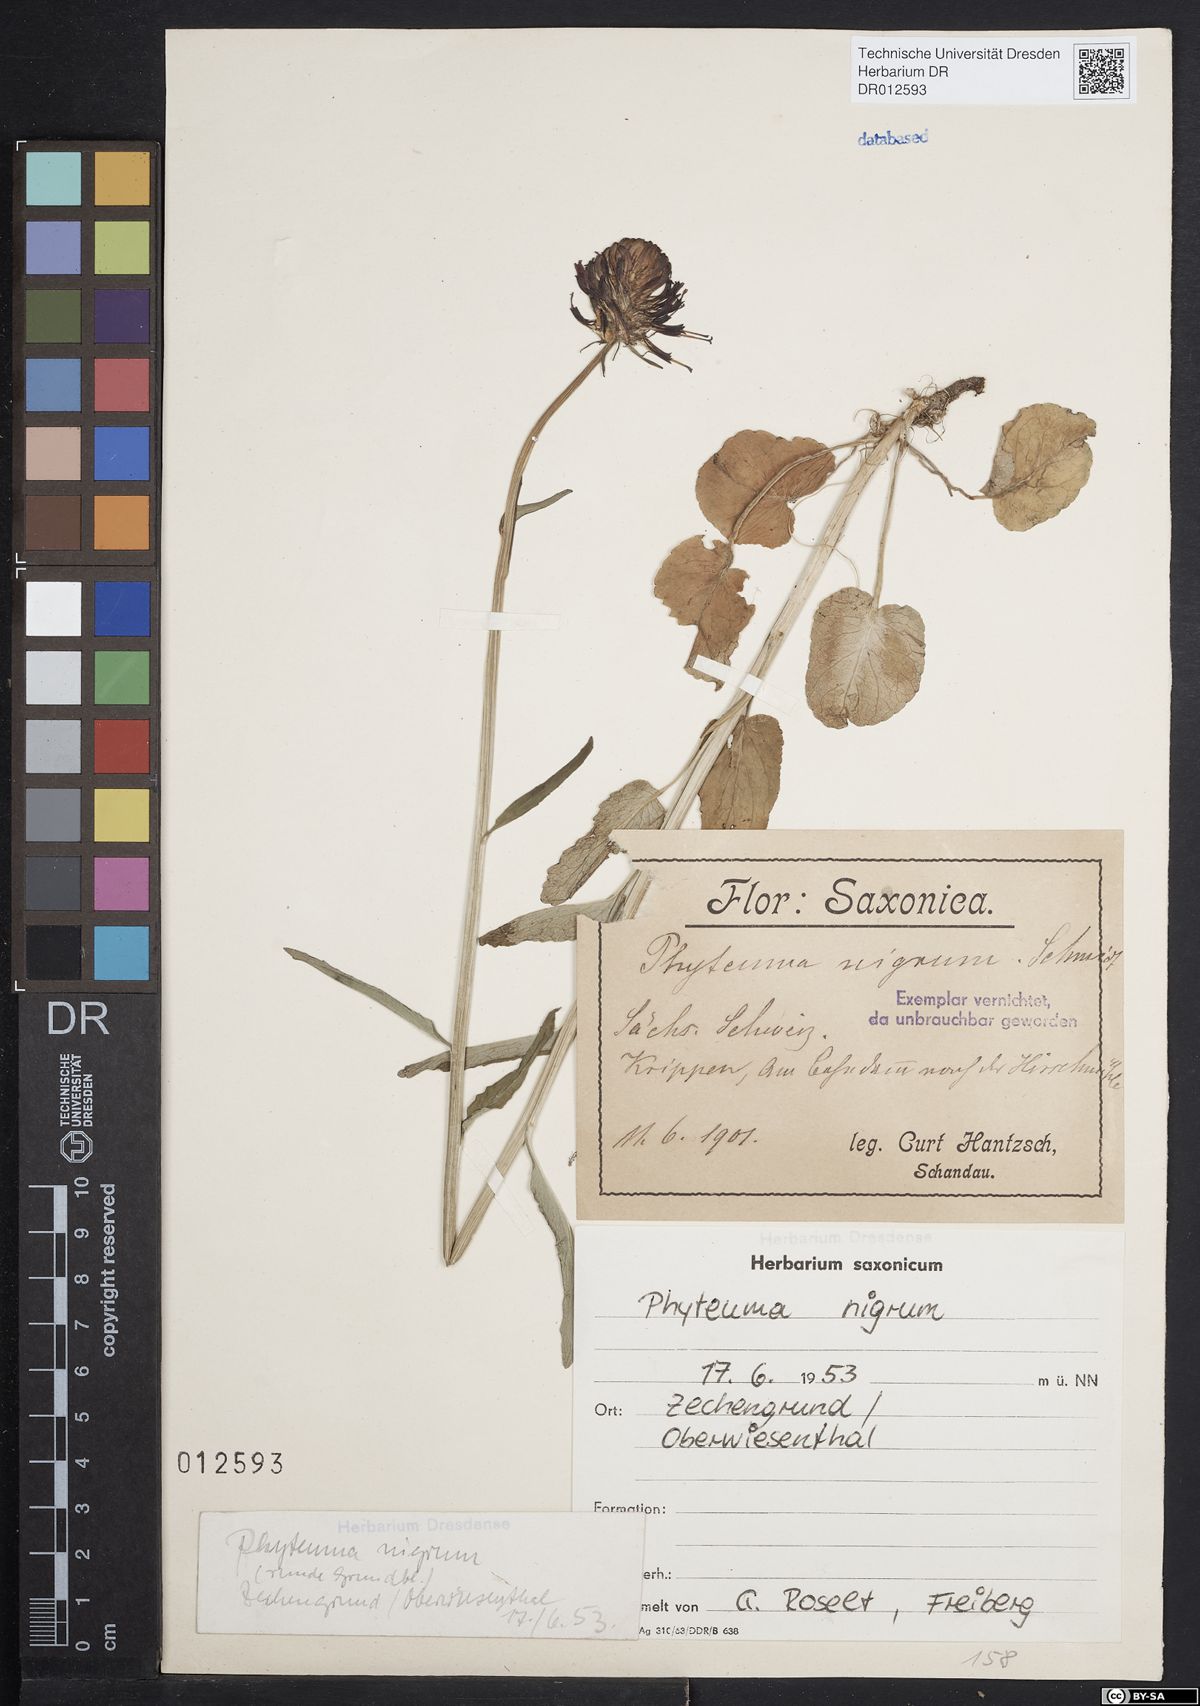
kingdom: Plantae
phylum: Tracheophyta
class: Magnoliopsida
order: Asterales
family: Campanulaceae
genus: Phyteuma
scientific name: Phyteuma nigrum
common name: Black rampion
